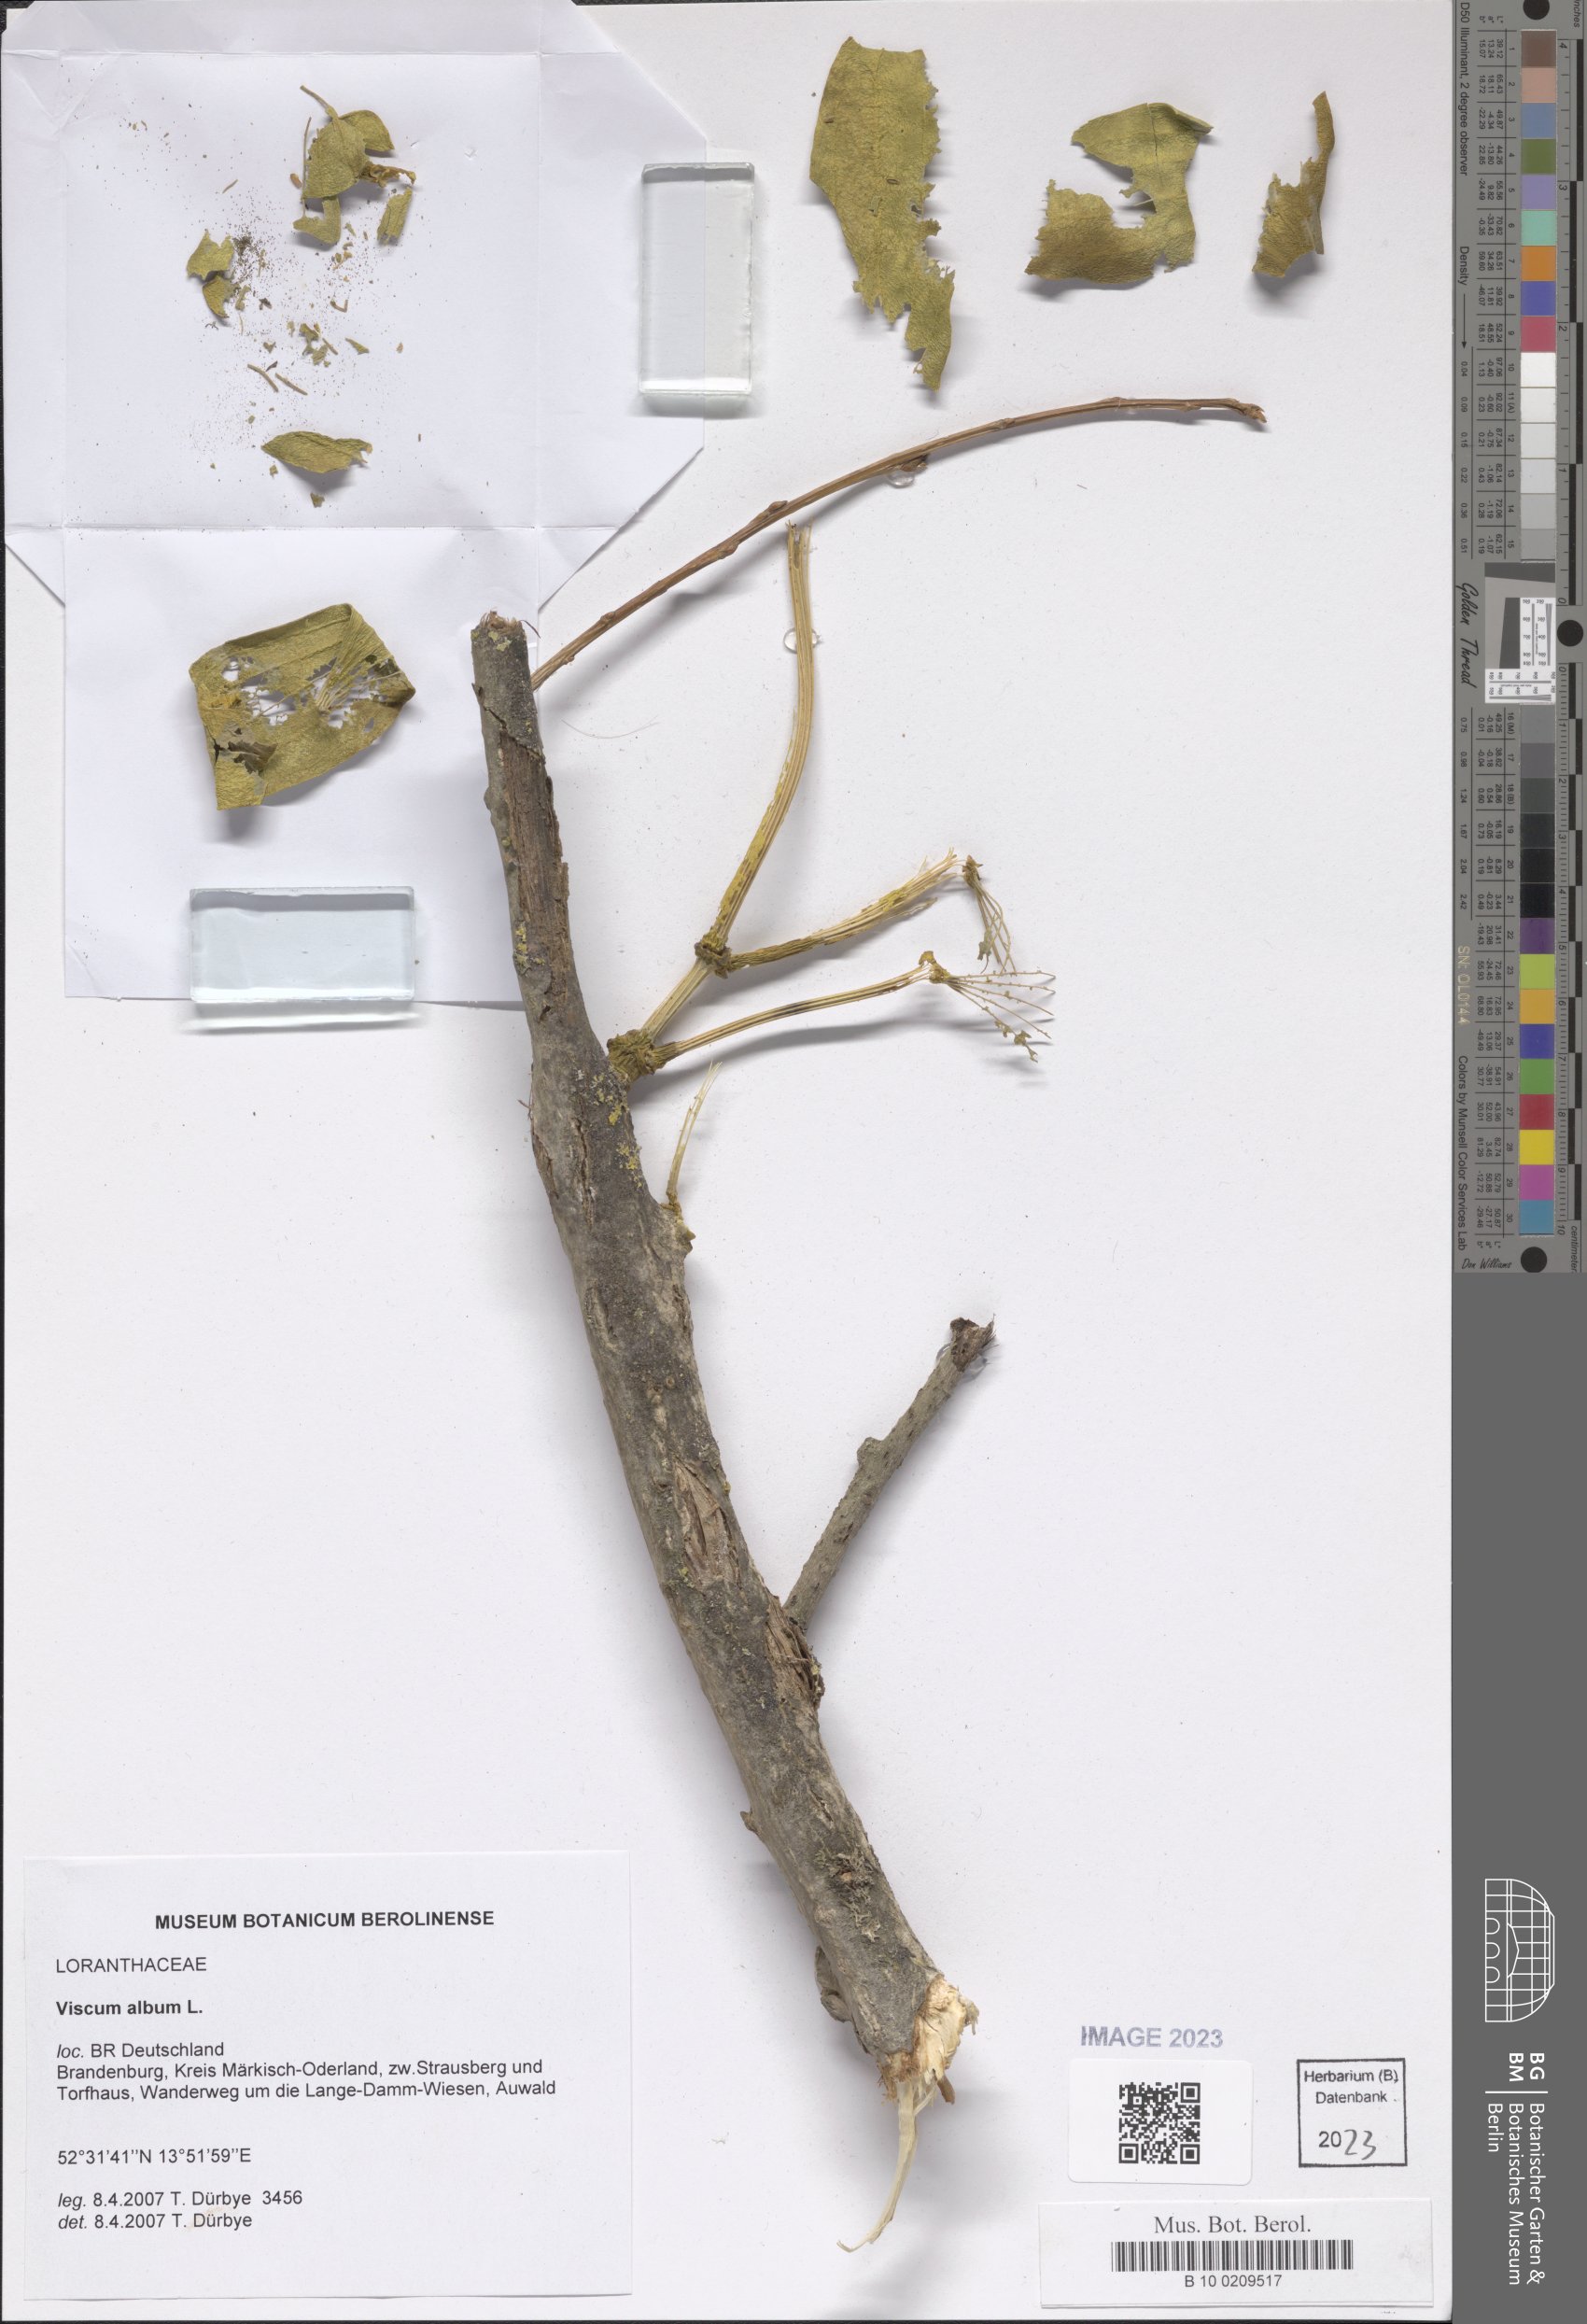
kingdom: Plantae
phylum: Tracheophyta
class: Magnoliopsida
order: Santalales
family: Viscaceae
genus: Viscum
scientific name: Viscum album
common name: Mistletoe
